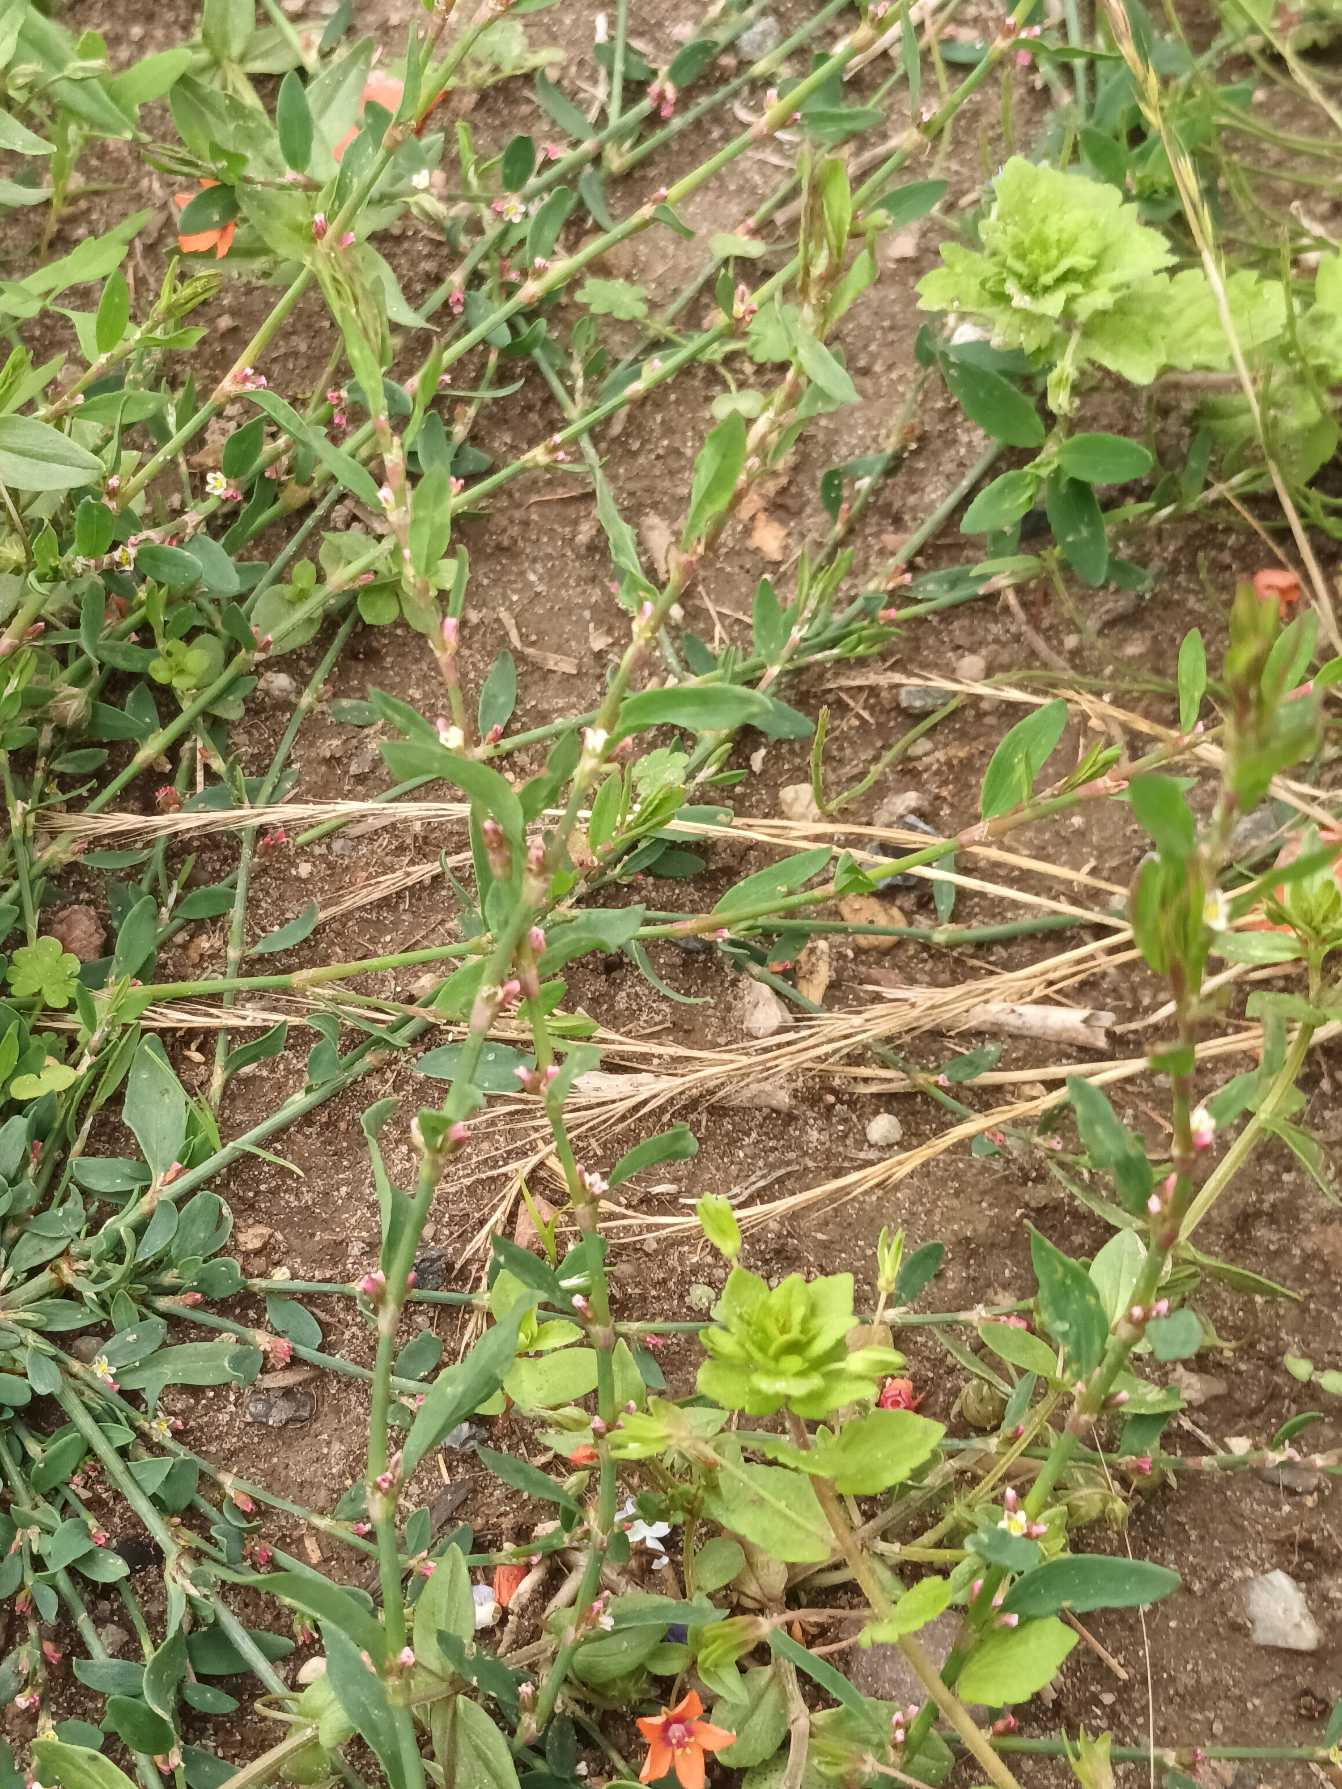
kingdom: Plantae
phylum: Tracheophyta
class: Magnoliopsida
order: Caryophyllales
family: Polygonaceae
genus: Polygonum
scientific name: Polygonum aviculare
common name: Vej-pileurt
